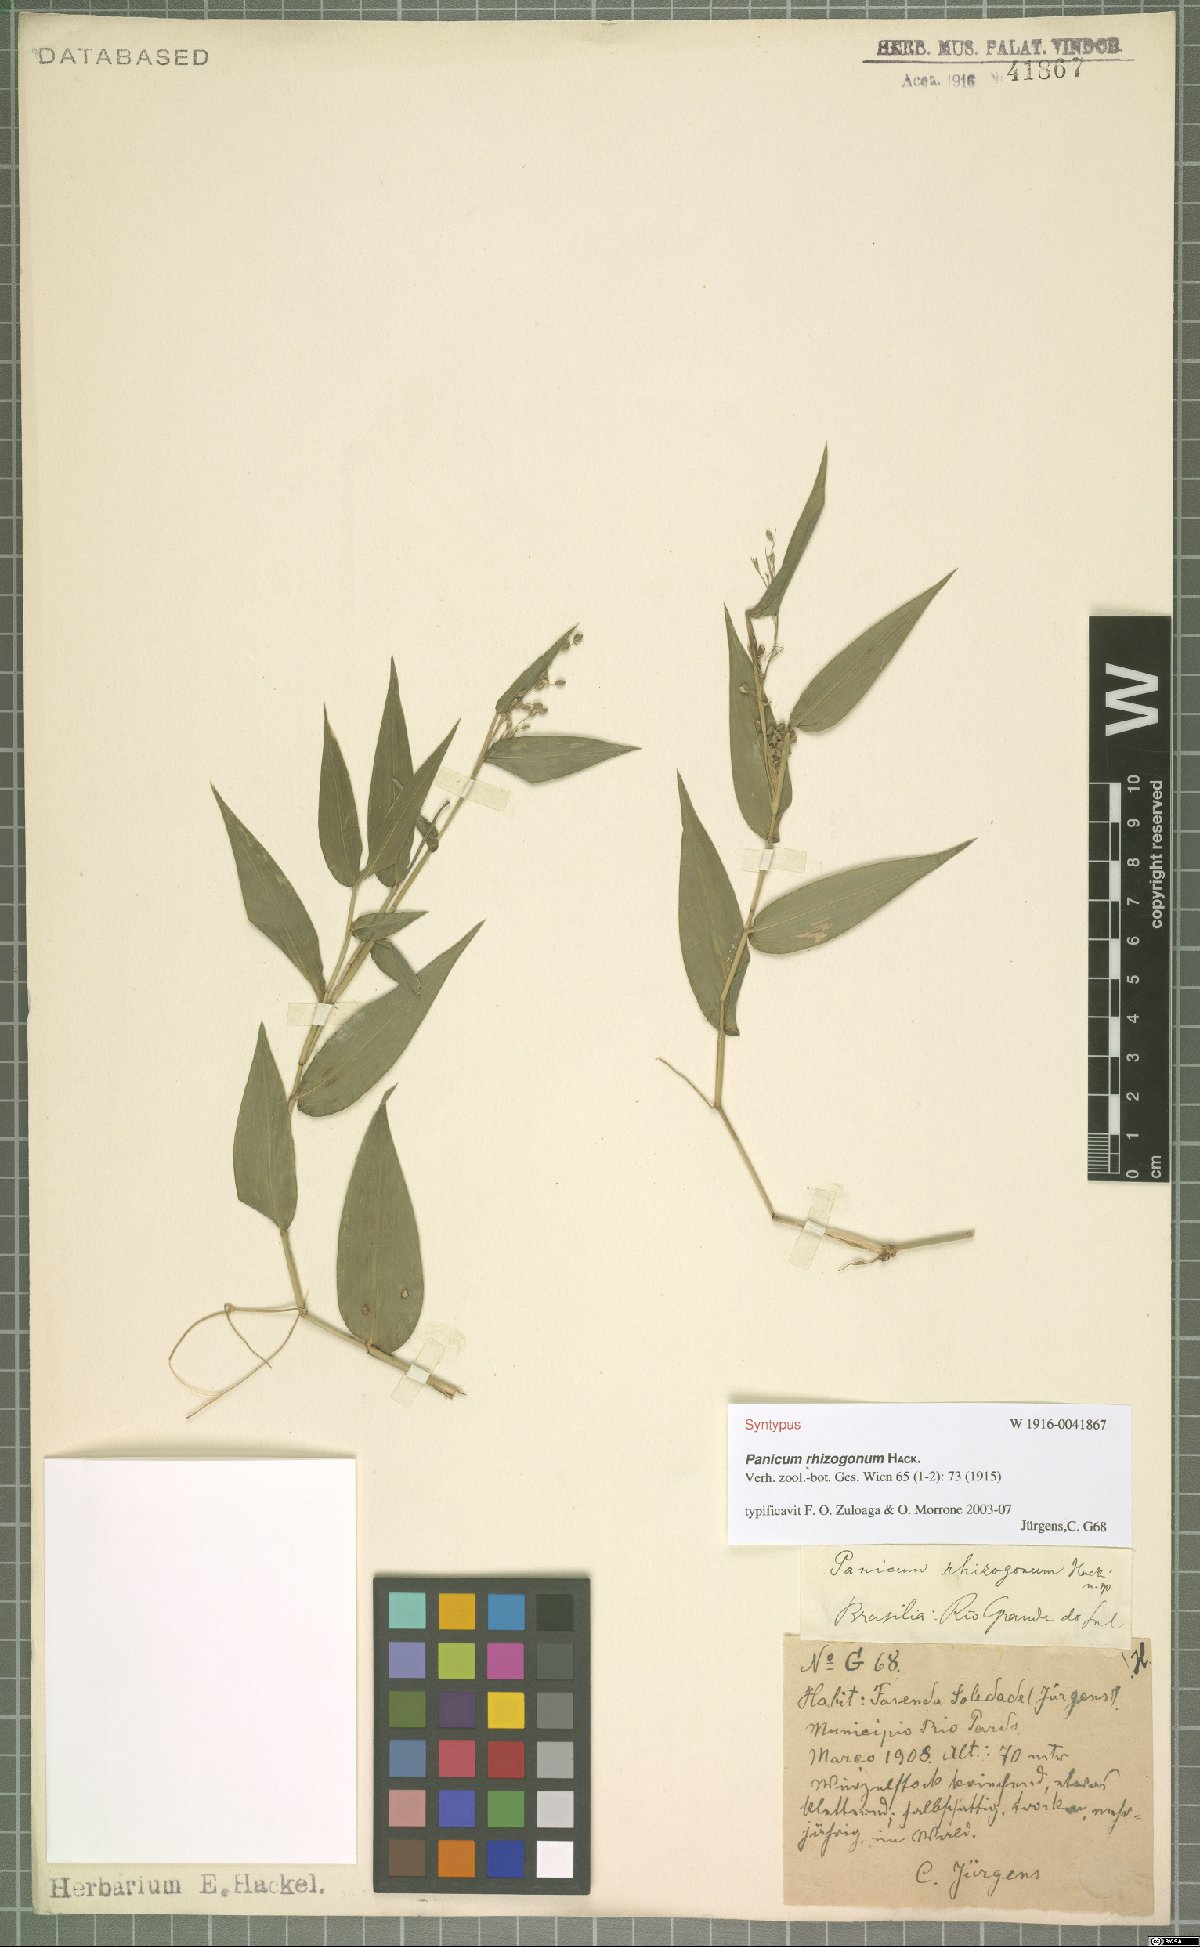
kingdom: Plantae
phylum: Tracheophyta
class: Liliopsida
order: Poales
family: Poaceae
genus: Parodiophyllochloa
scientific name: Parodiophyllochloa rhizogona
